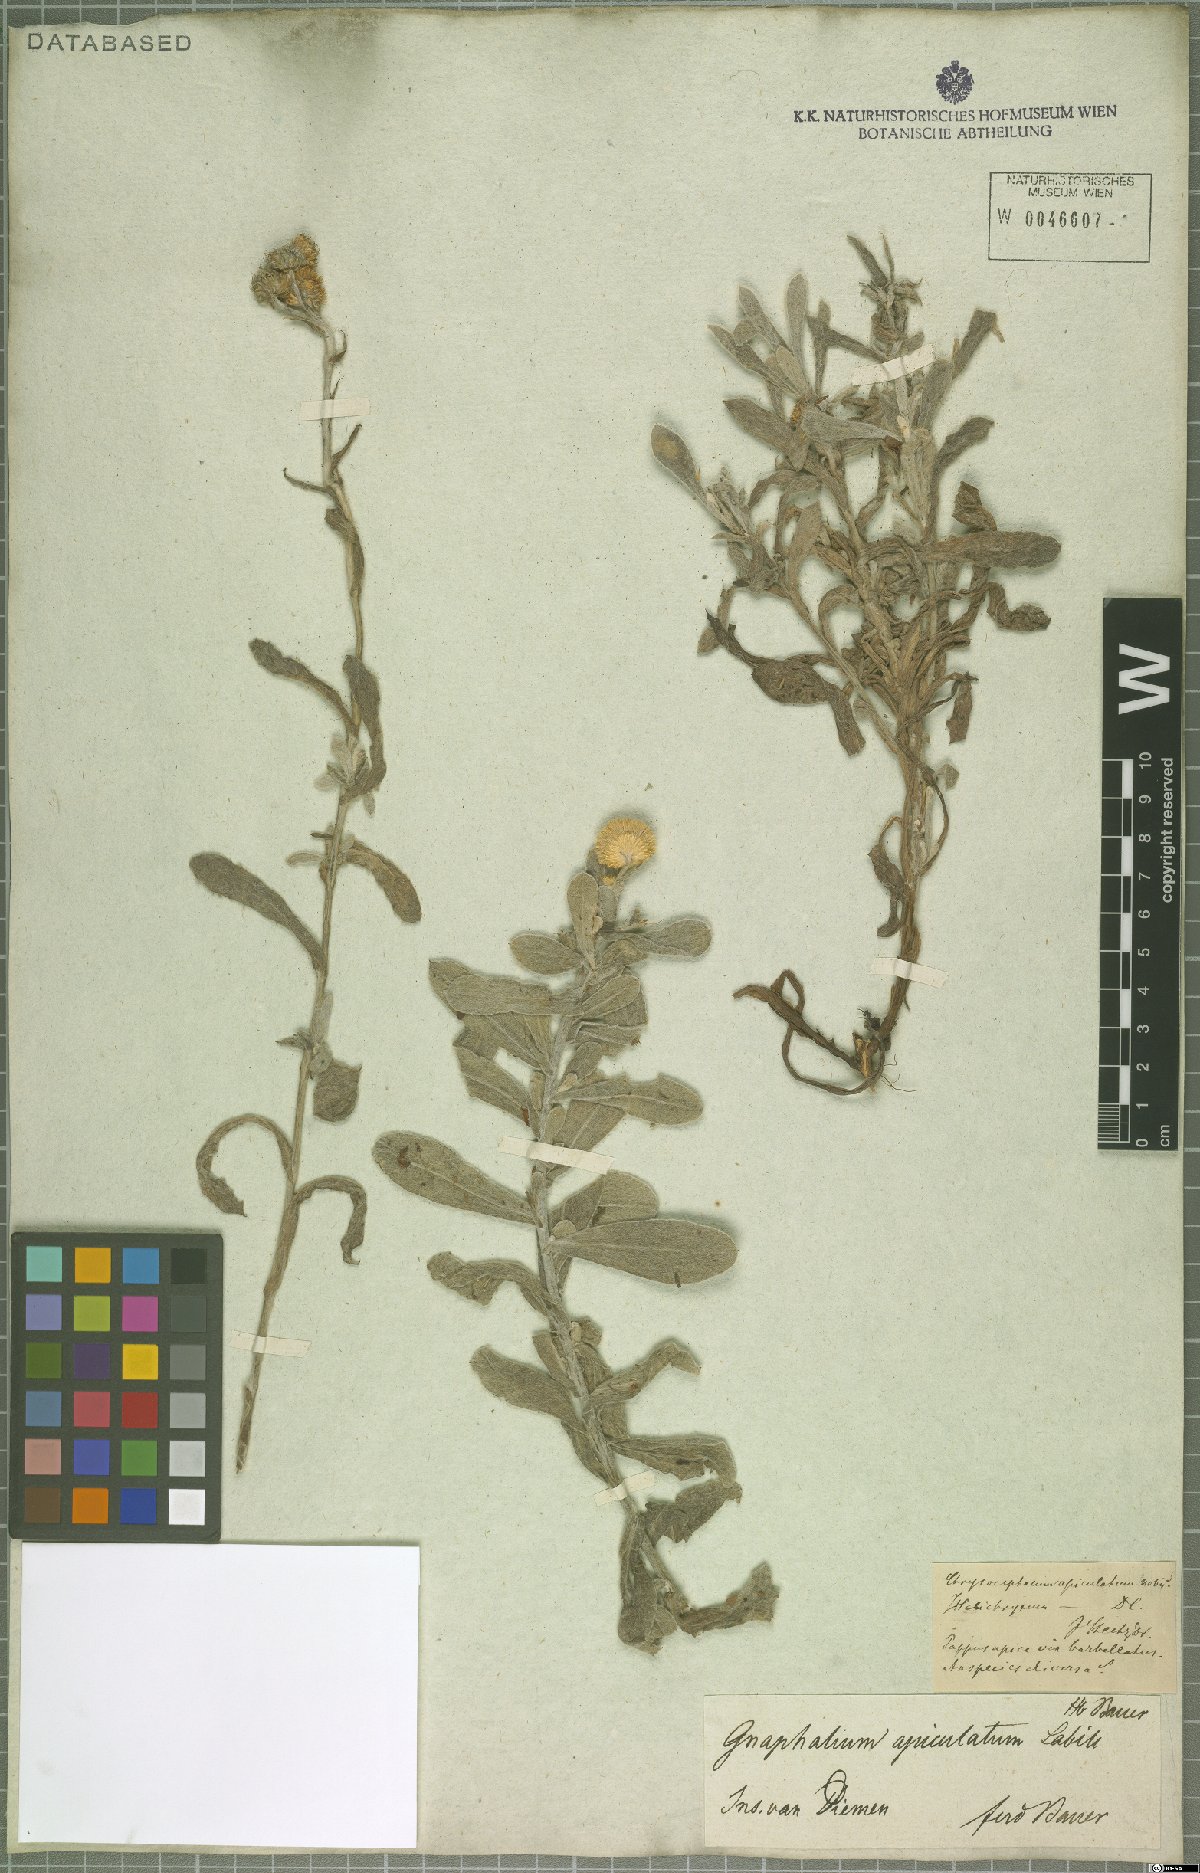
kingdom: Plantae
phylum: Tracheophyta
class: Magnoliopsida
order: Asterales
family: Asteraceae
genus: Chrysocephalum
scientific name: Chrysocephalum apiculatum
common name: Common everlasting
